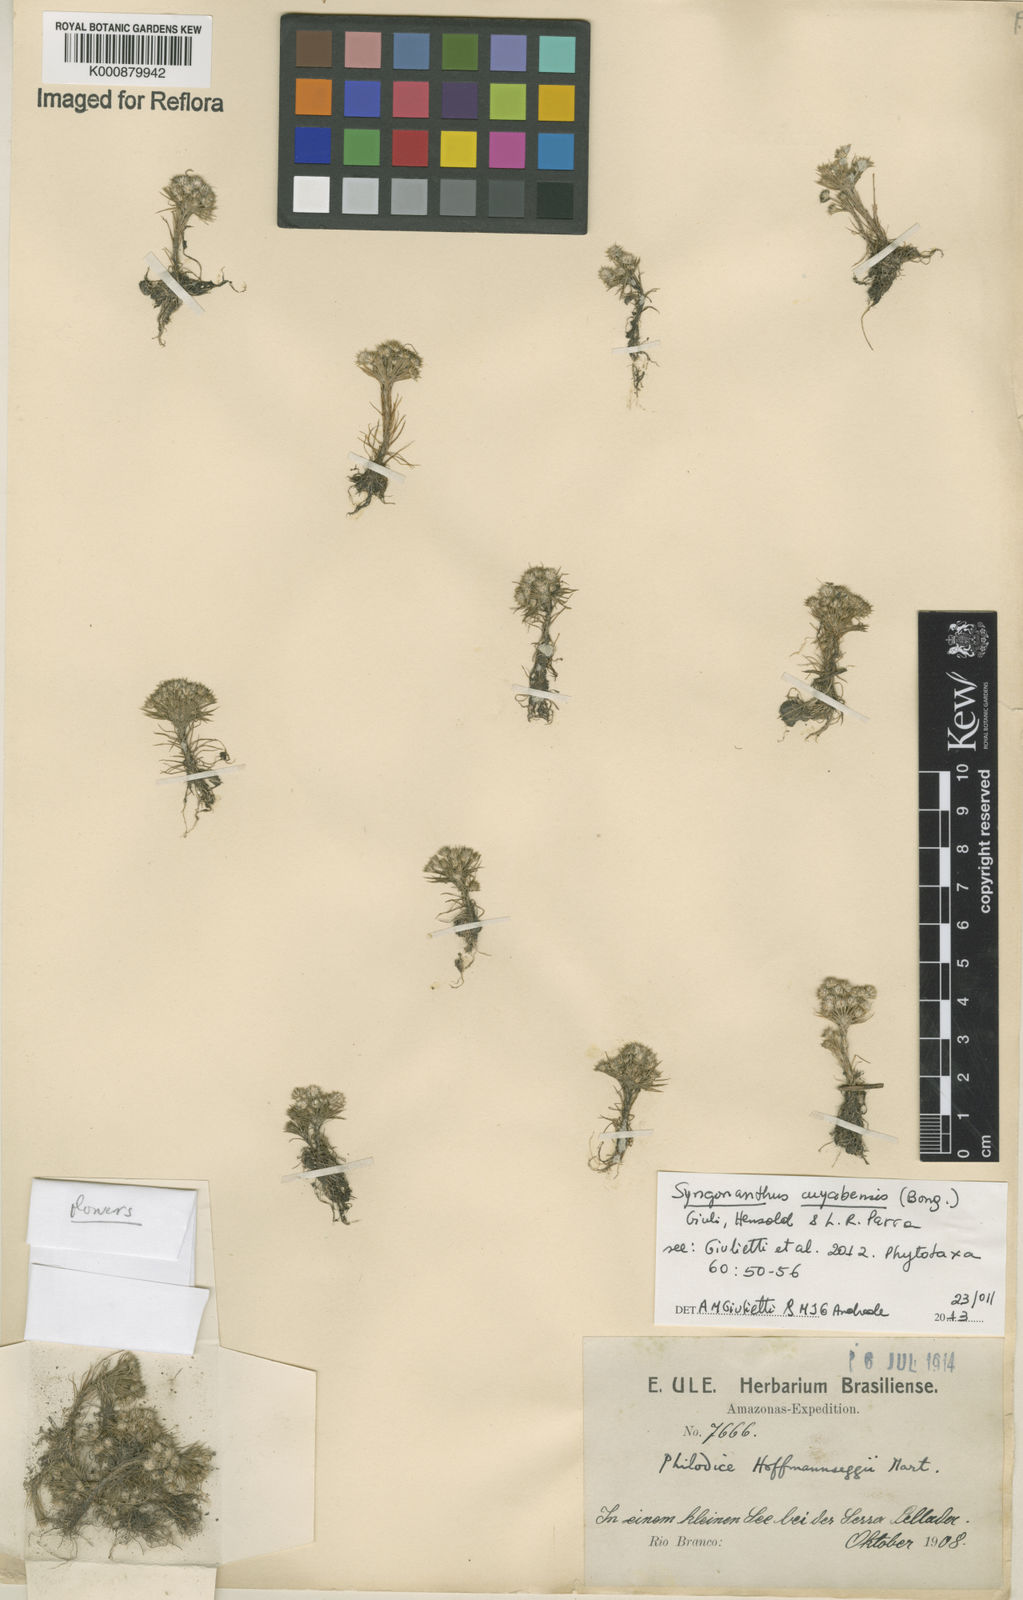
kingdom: Plantae
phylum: Tracheophyta
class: Liliopsida
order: Poales
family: Eriocaulaceae
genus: Syngonanthus
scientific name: Syngonanthus cuyabensis
